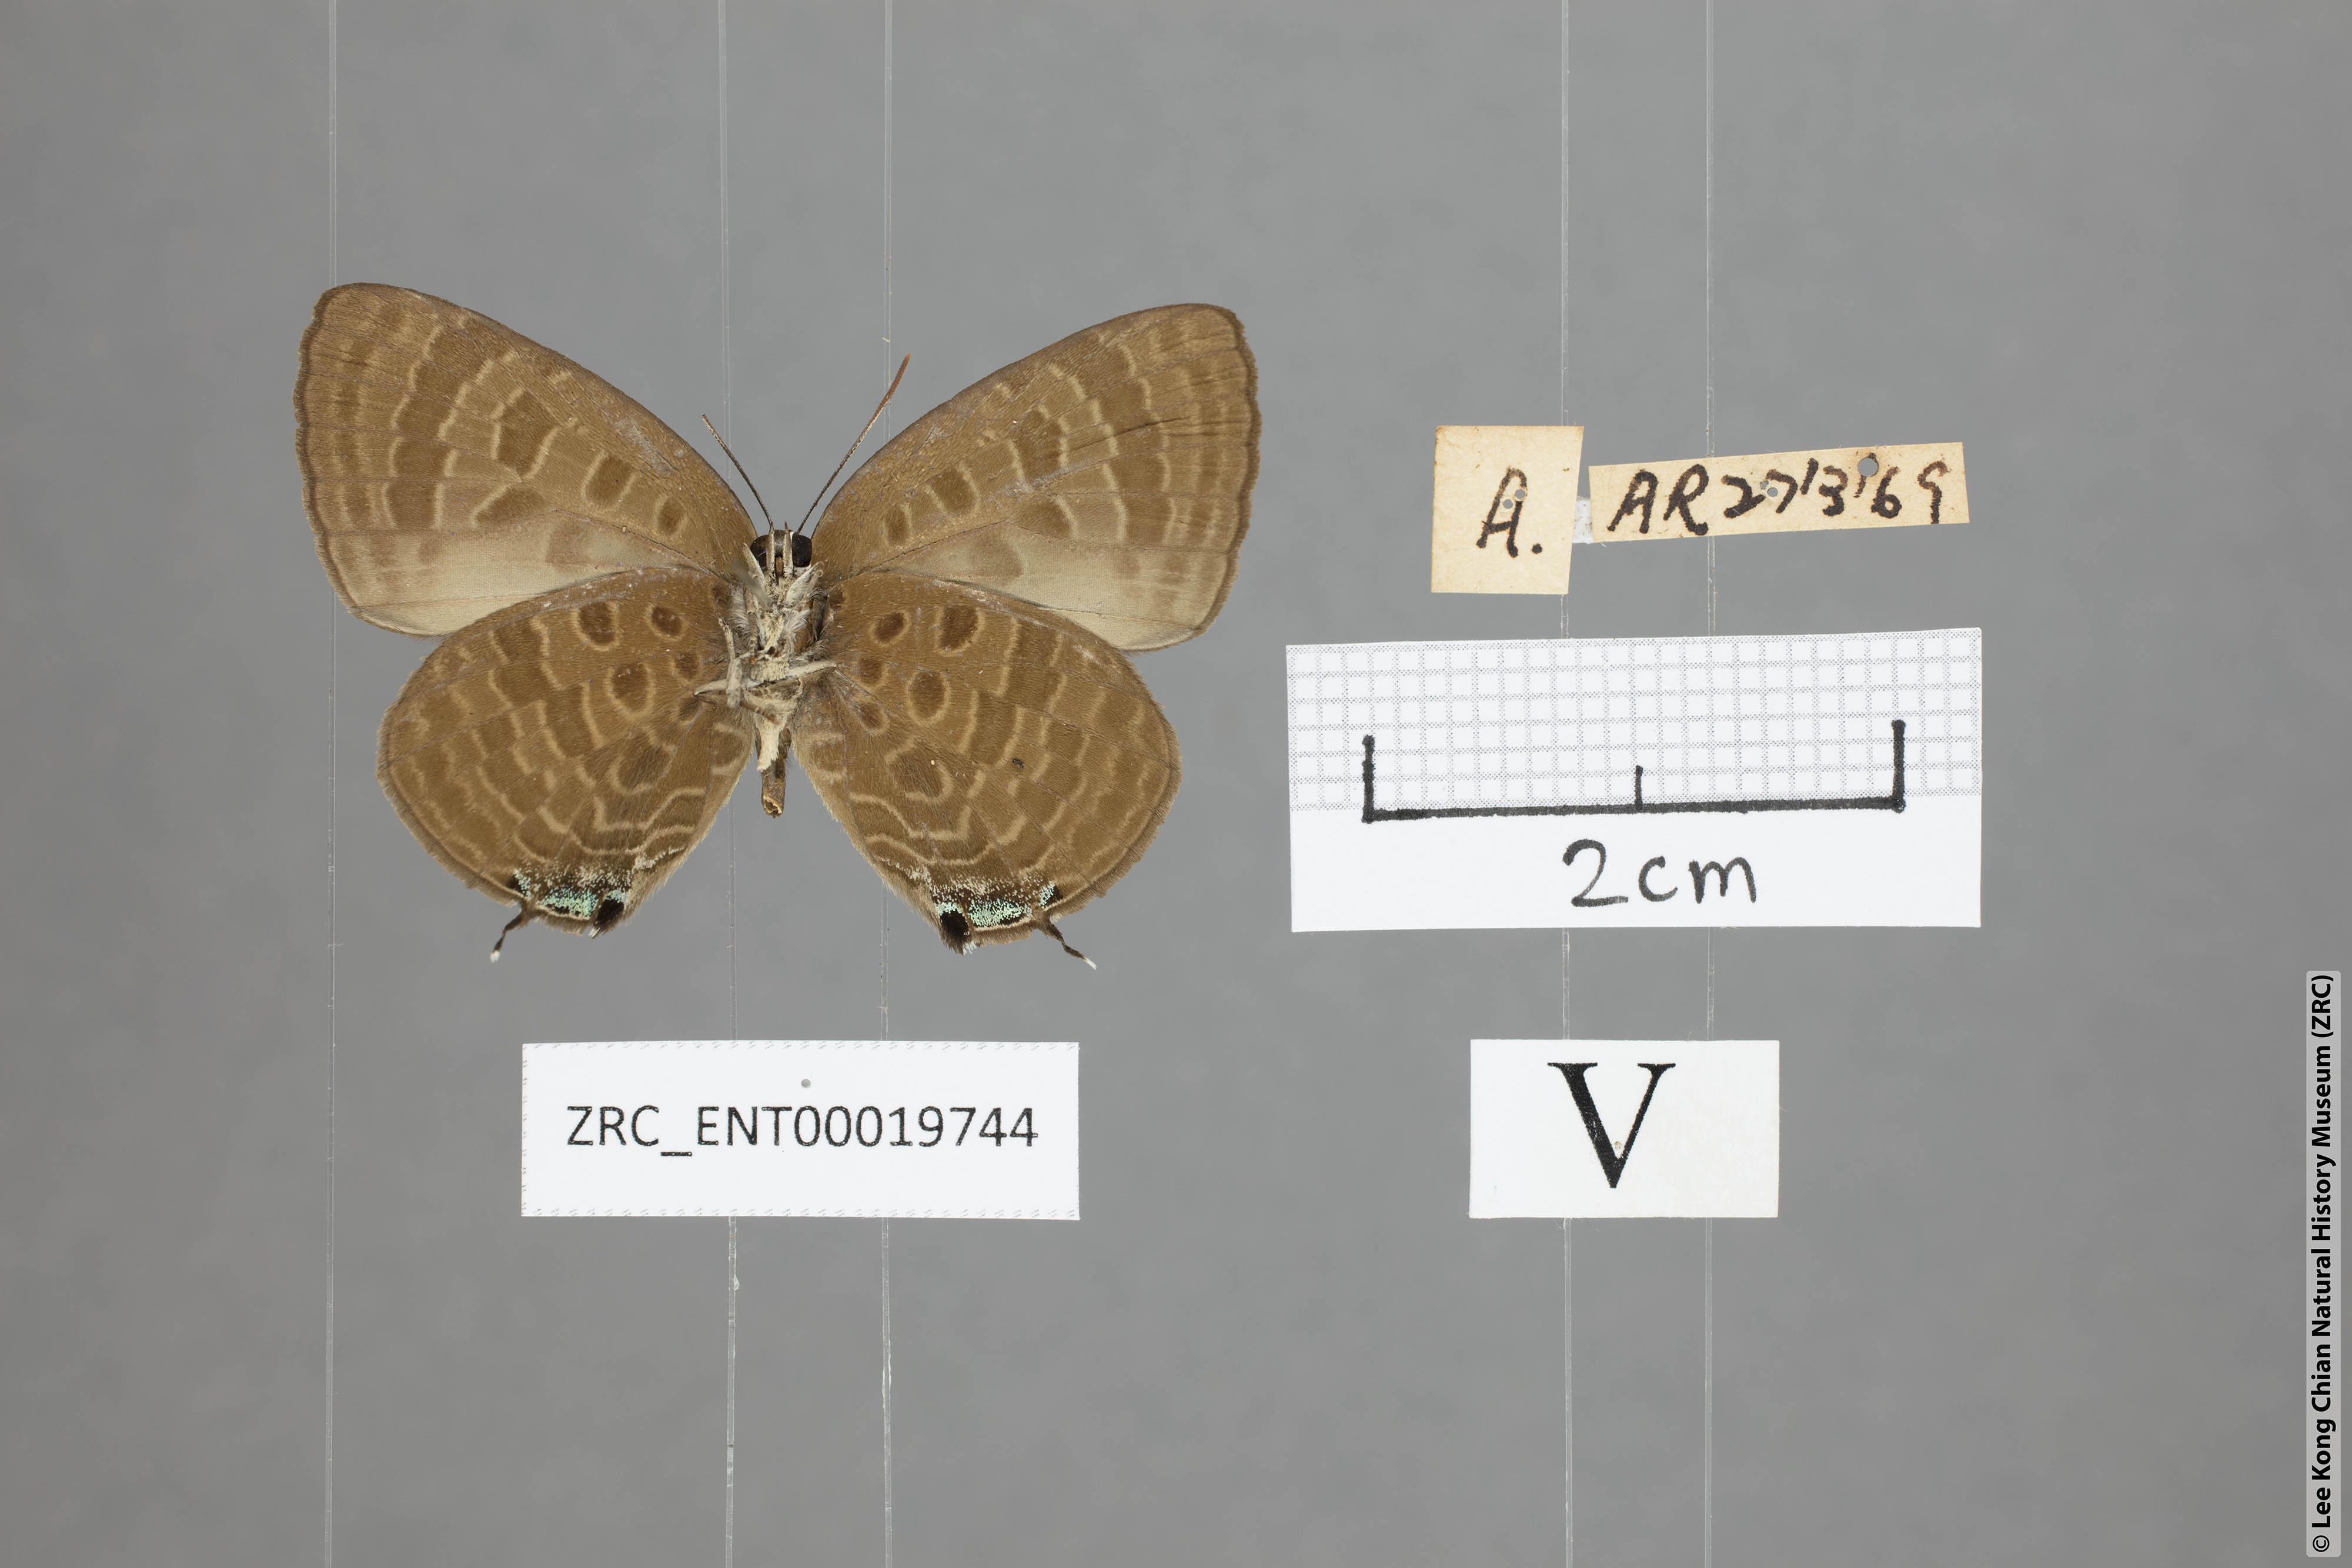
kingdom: Animalia
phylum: Arthropoda
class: Insecta
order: Lepidoptera
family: Lycaenidae
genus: Arhopala
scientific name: Arhopala normani
